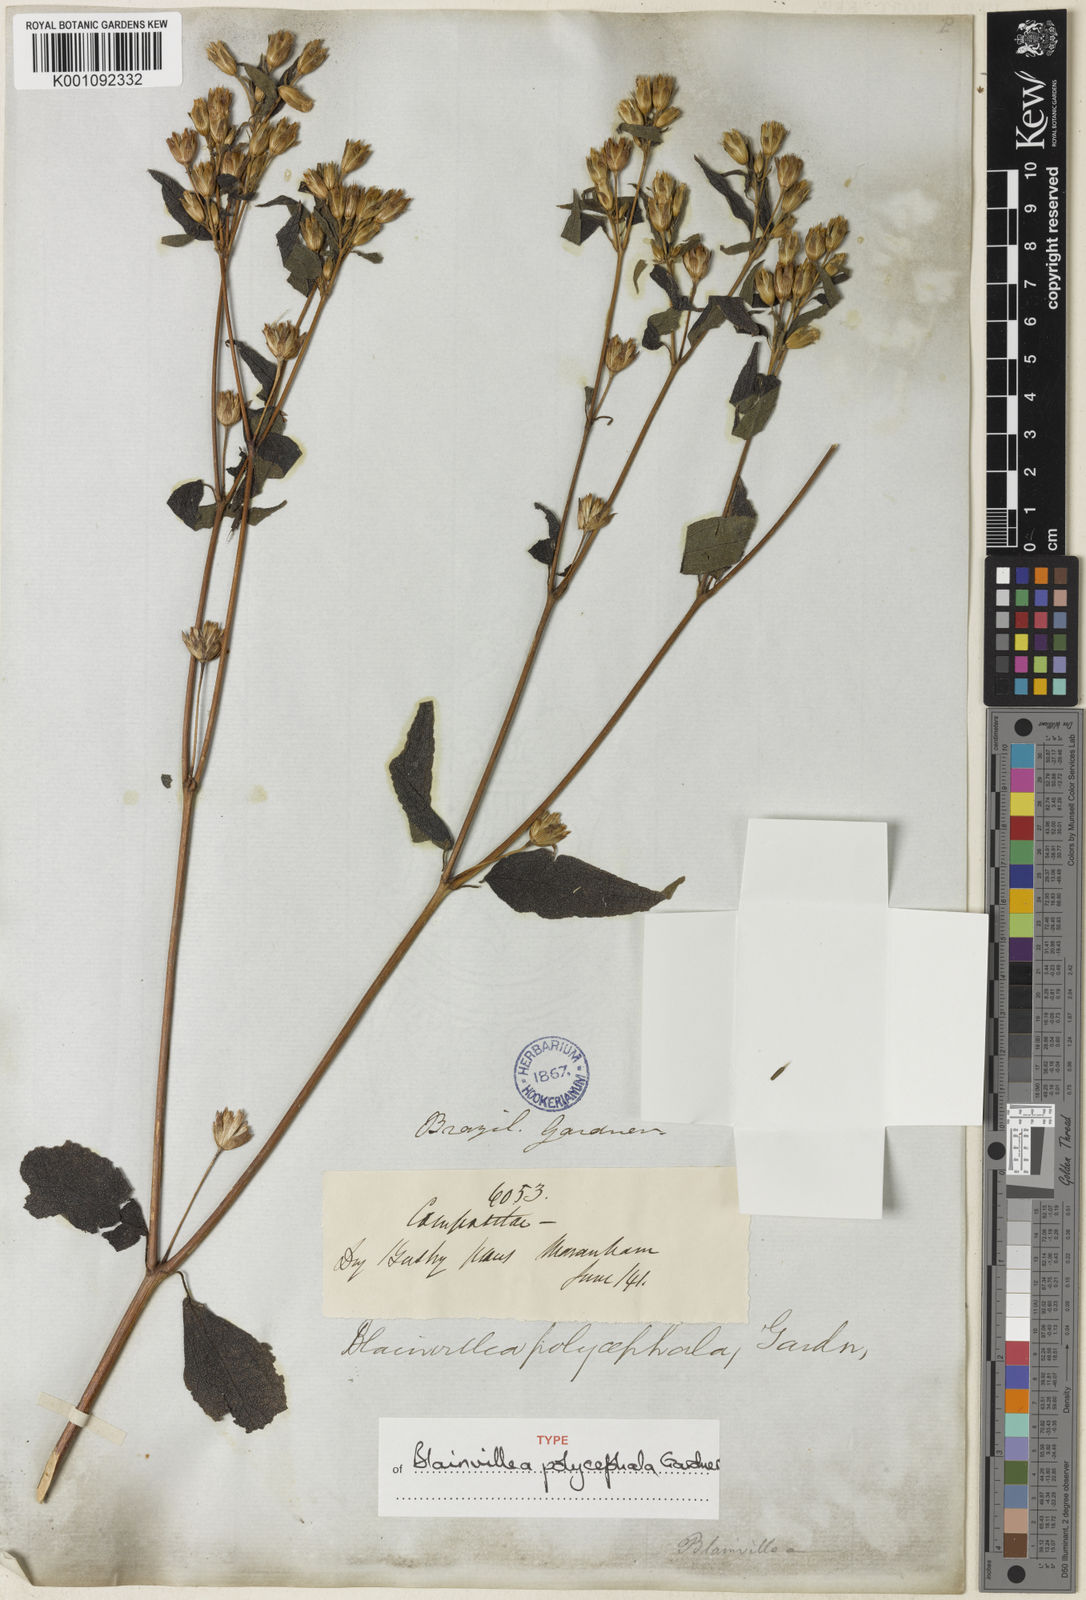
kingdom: Plantae
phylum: Tracheophyta
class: Magnoliopsida
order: Asterales
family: Asteraceae
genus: Blainvillea
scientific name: Blainvillea acmella
